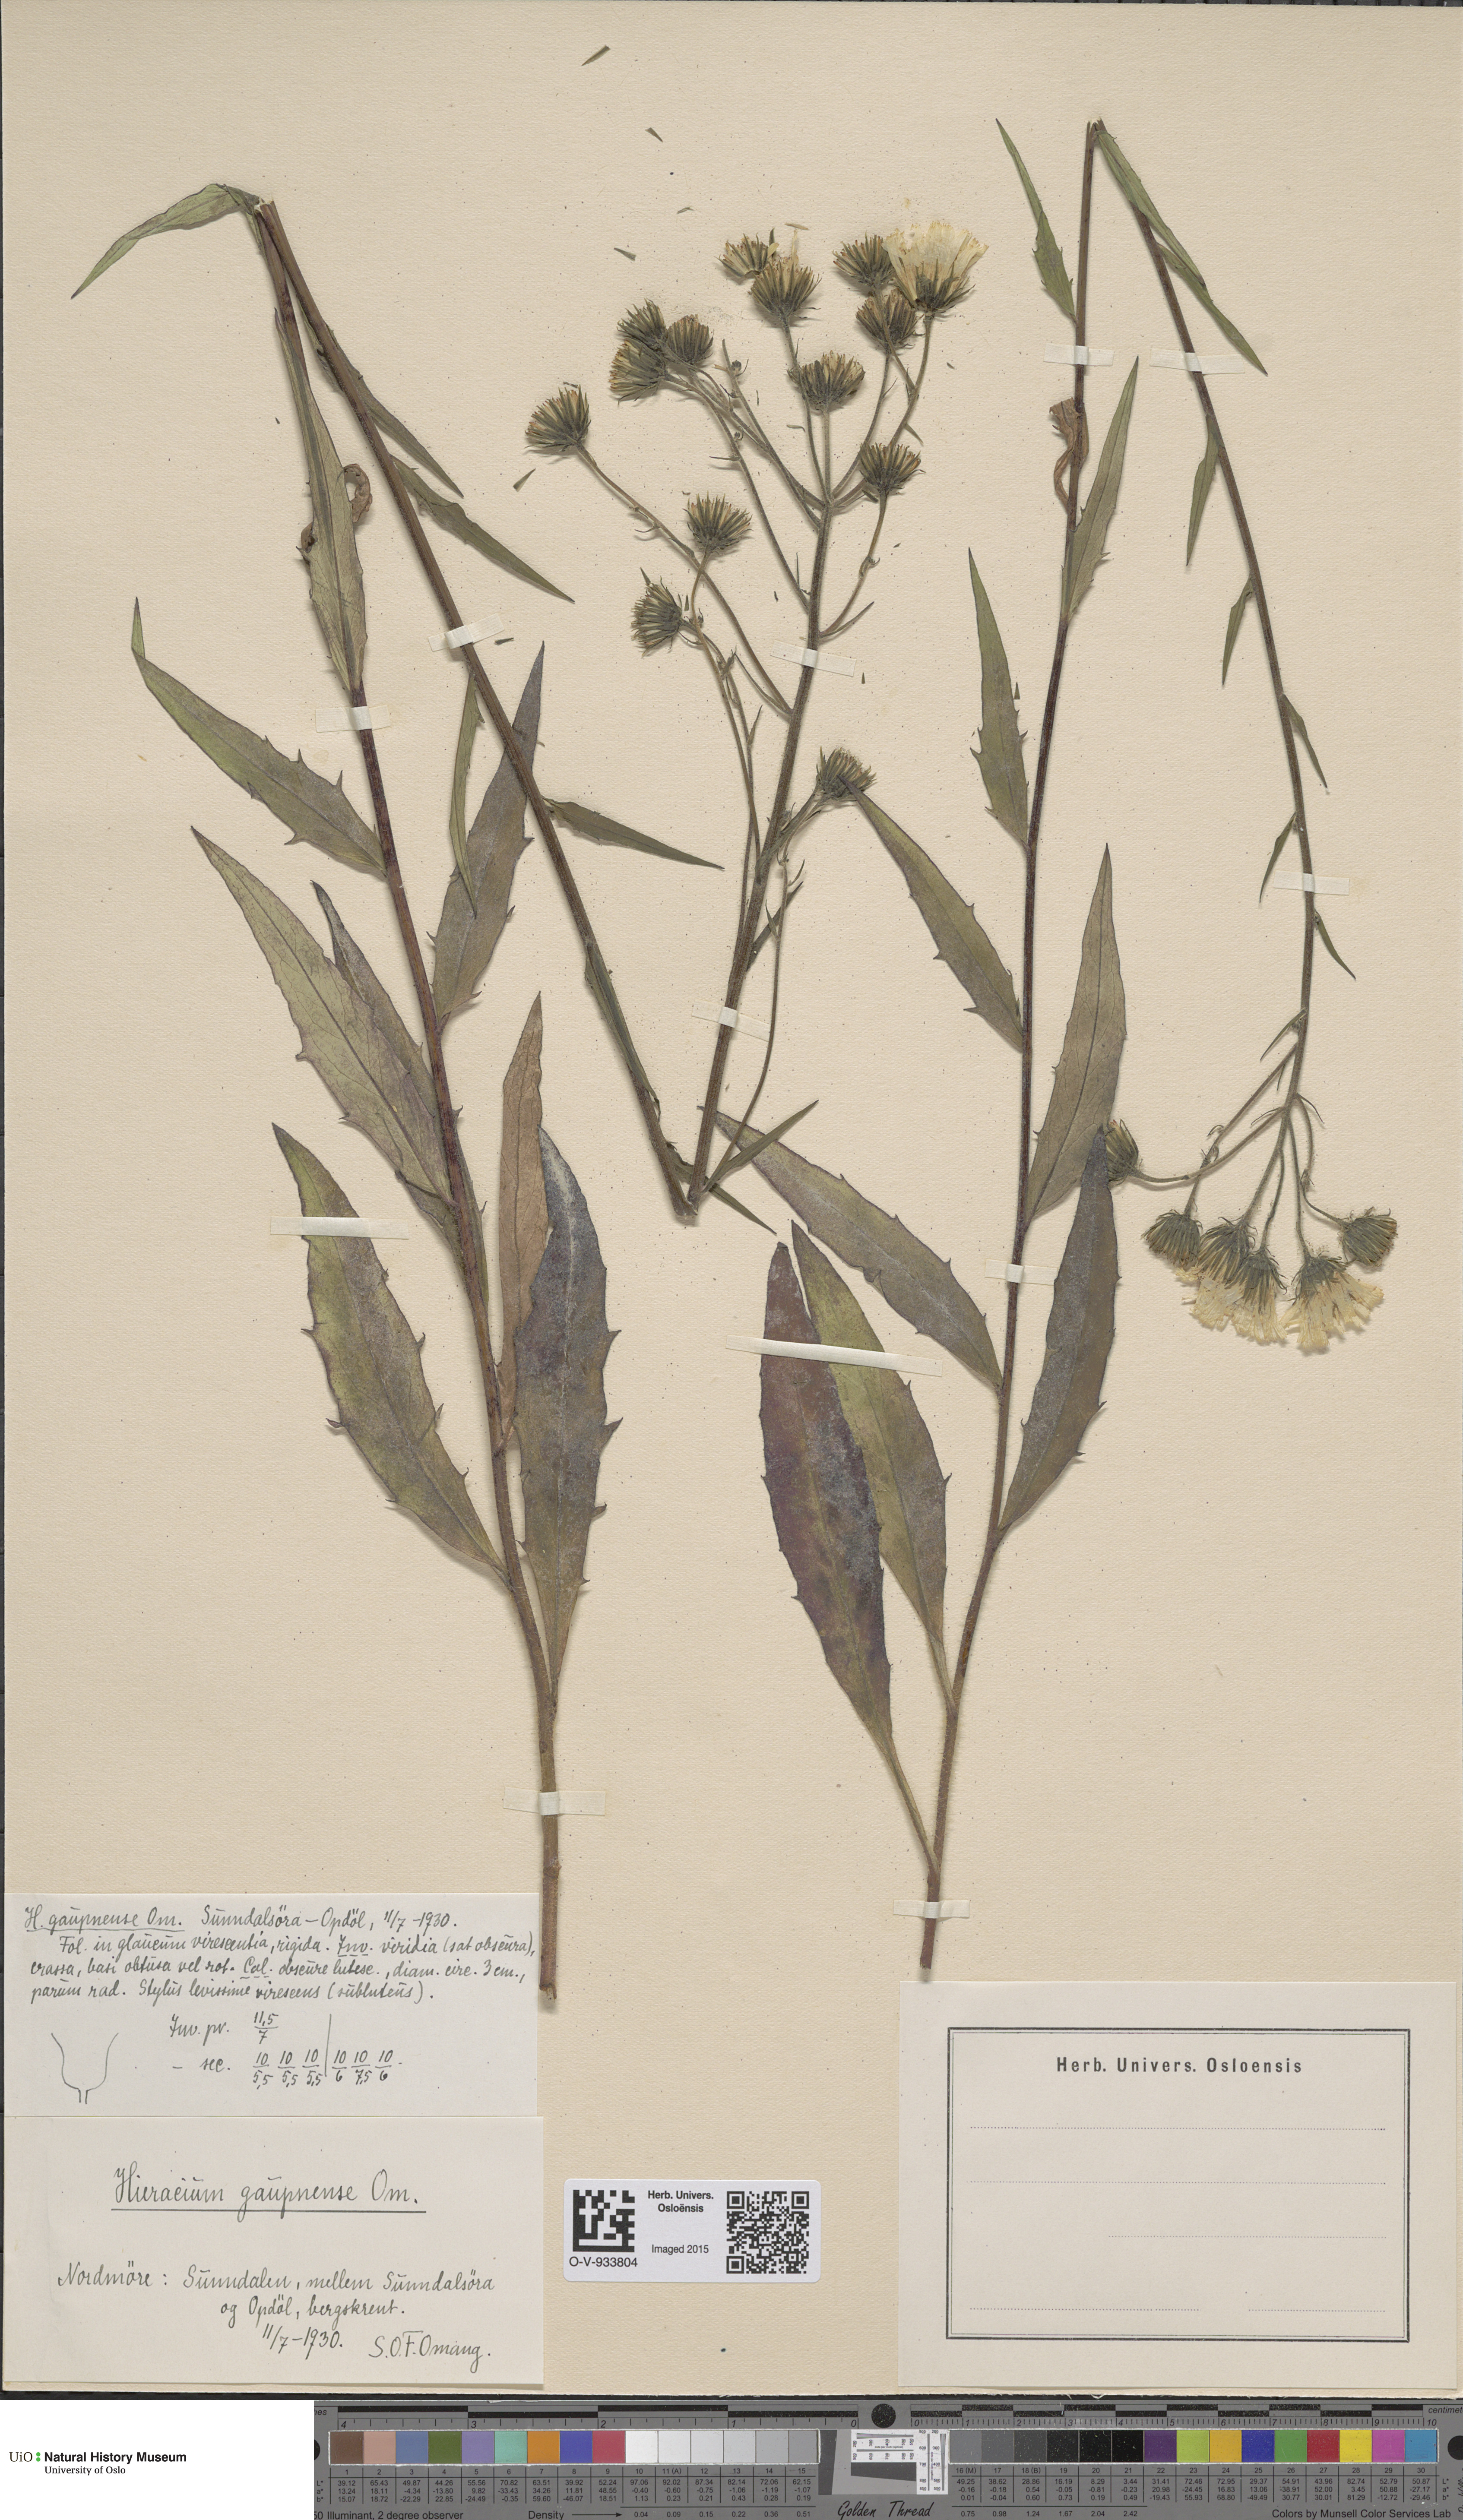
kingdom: Plantae
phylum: Tracheophyta
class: Magnoliopsida
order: Asterales
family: Asteraceae
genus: Hieracium
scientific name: Hieracium
